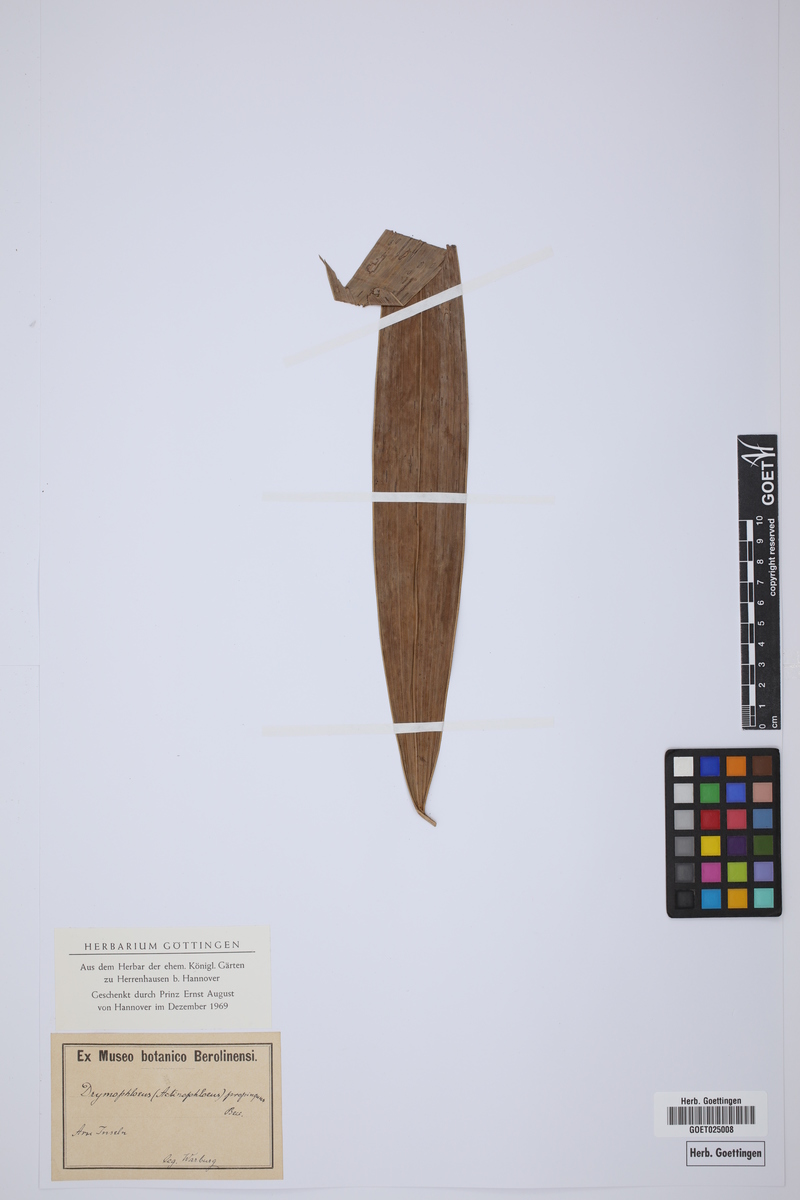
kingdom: Plantae
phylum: Tracheophyta
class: Liliopsida
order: Arecales
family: Arecaceae
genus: Ptychosperma
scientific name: Ptychosperma propinquum
